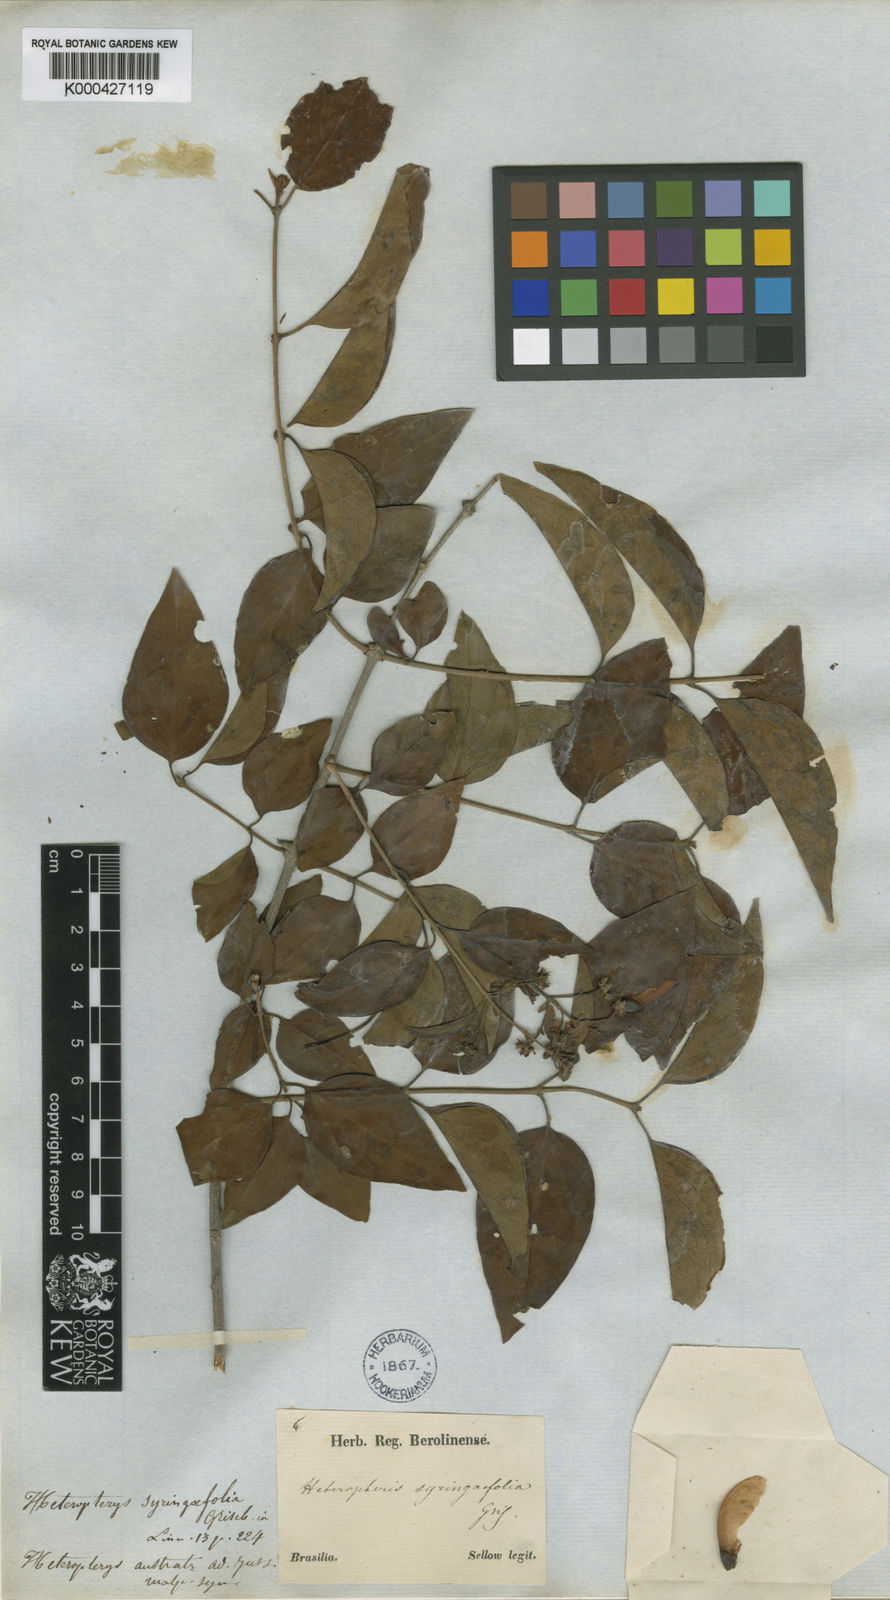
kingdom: Plantae
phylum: Tracheophyta
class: Magnoliopsida
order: Malpighiales
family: Malpighiaceae
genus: Heteropterys
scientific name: Heteropterys syringifolia
